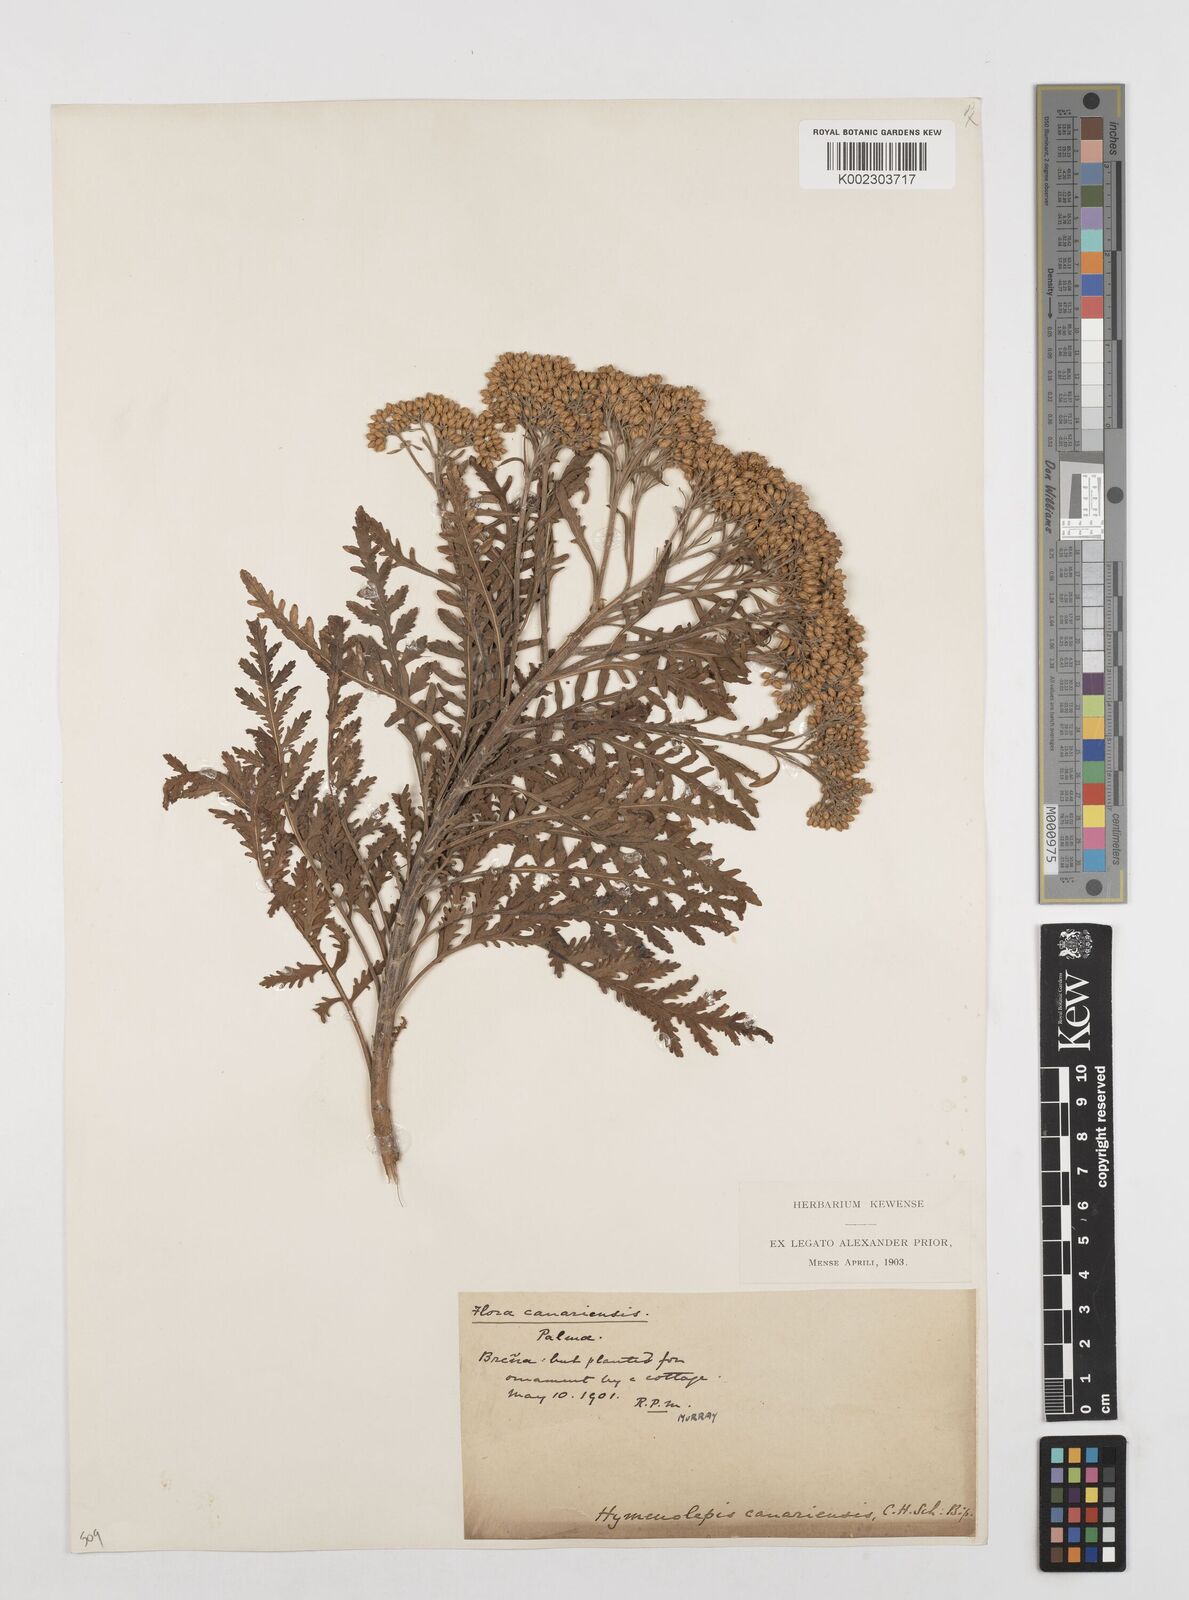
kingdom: Plantae
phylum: Tracheophyta
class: Magnoliopsida
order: Asterales
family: Asteraceae
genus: Gonospermum
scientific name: Gonospermum canariense
